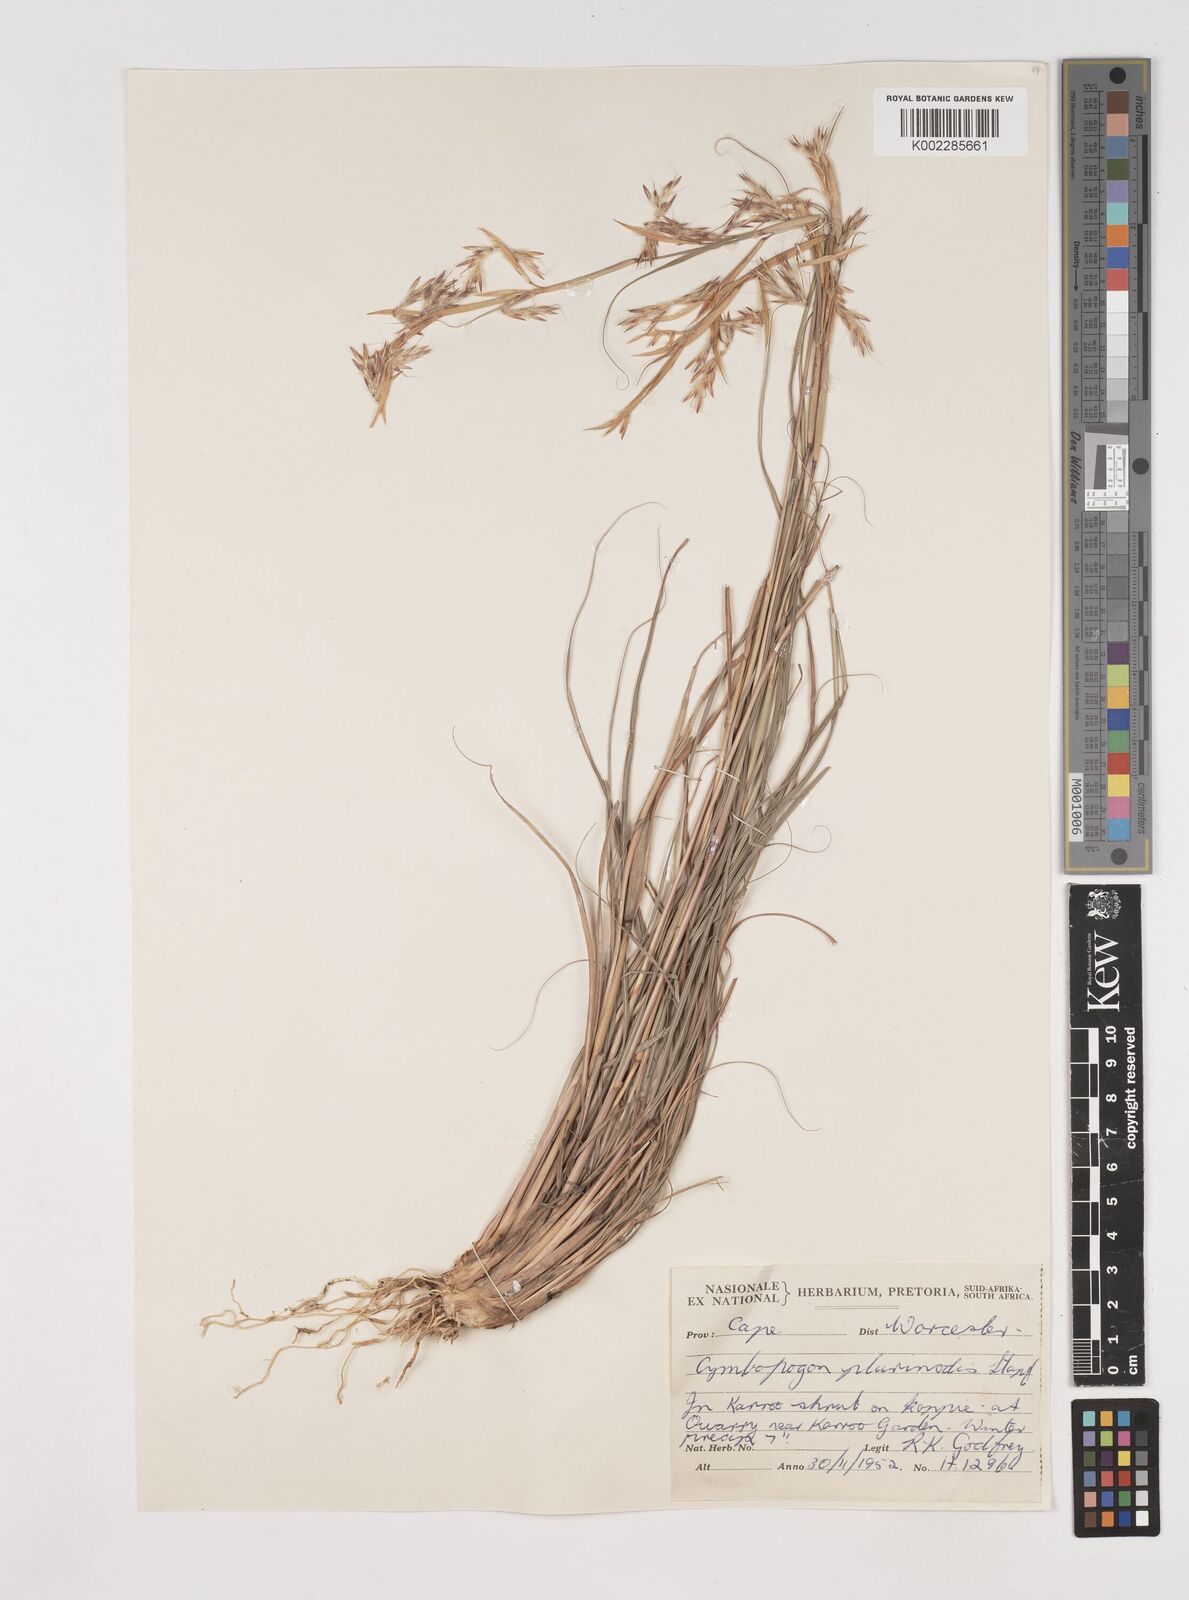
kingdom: Plantae
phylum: Tracheophyta
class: Liliopsida
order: Poales
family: Poaceae
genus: Cymbopogon
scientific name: Cymbopogon marginatus
